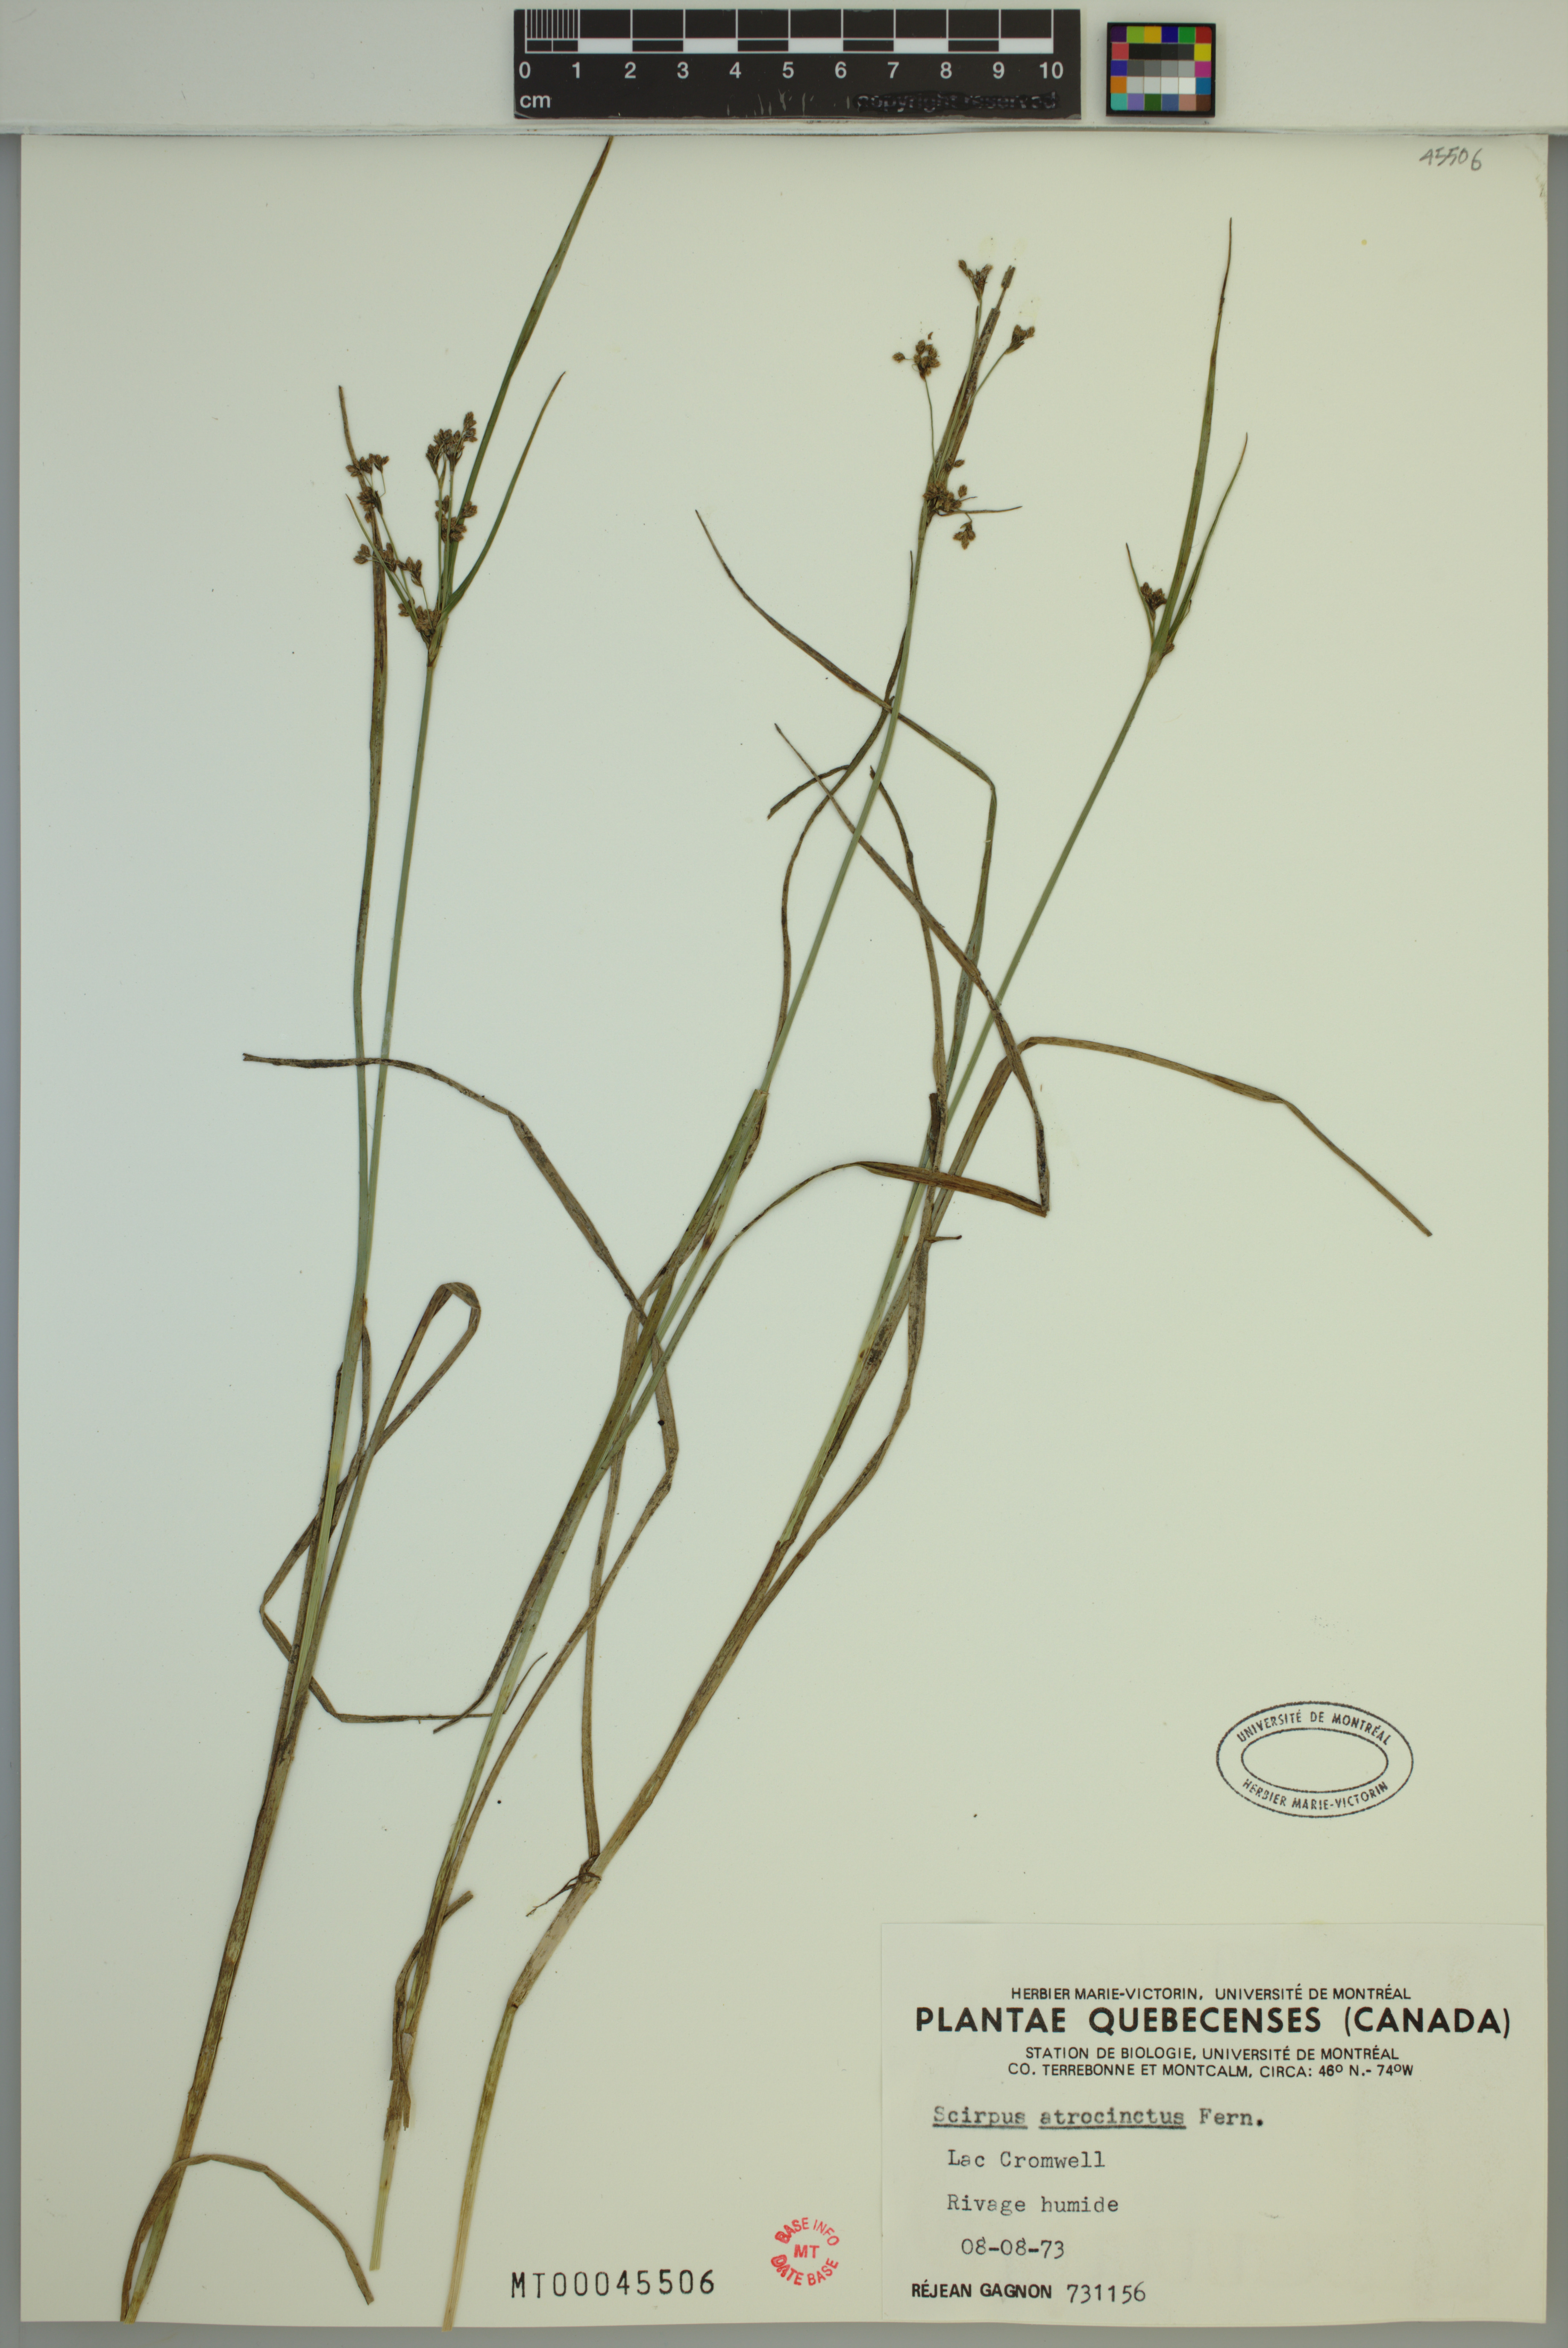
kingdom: Plantae
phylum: Tracheophyta
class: Liliopsida
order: Poales
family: Cyperaceae
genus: Scirpus
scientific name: Scirpus atrocinctus
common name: Black-girdled bulrush
